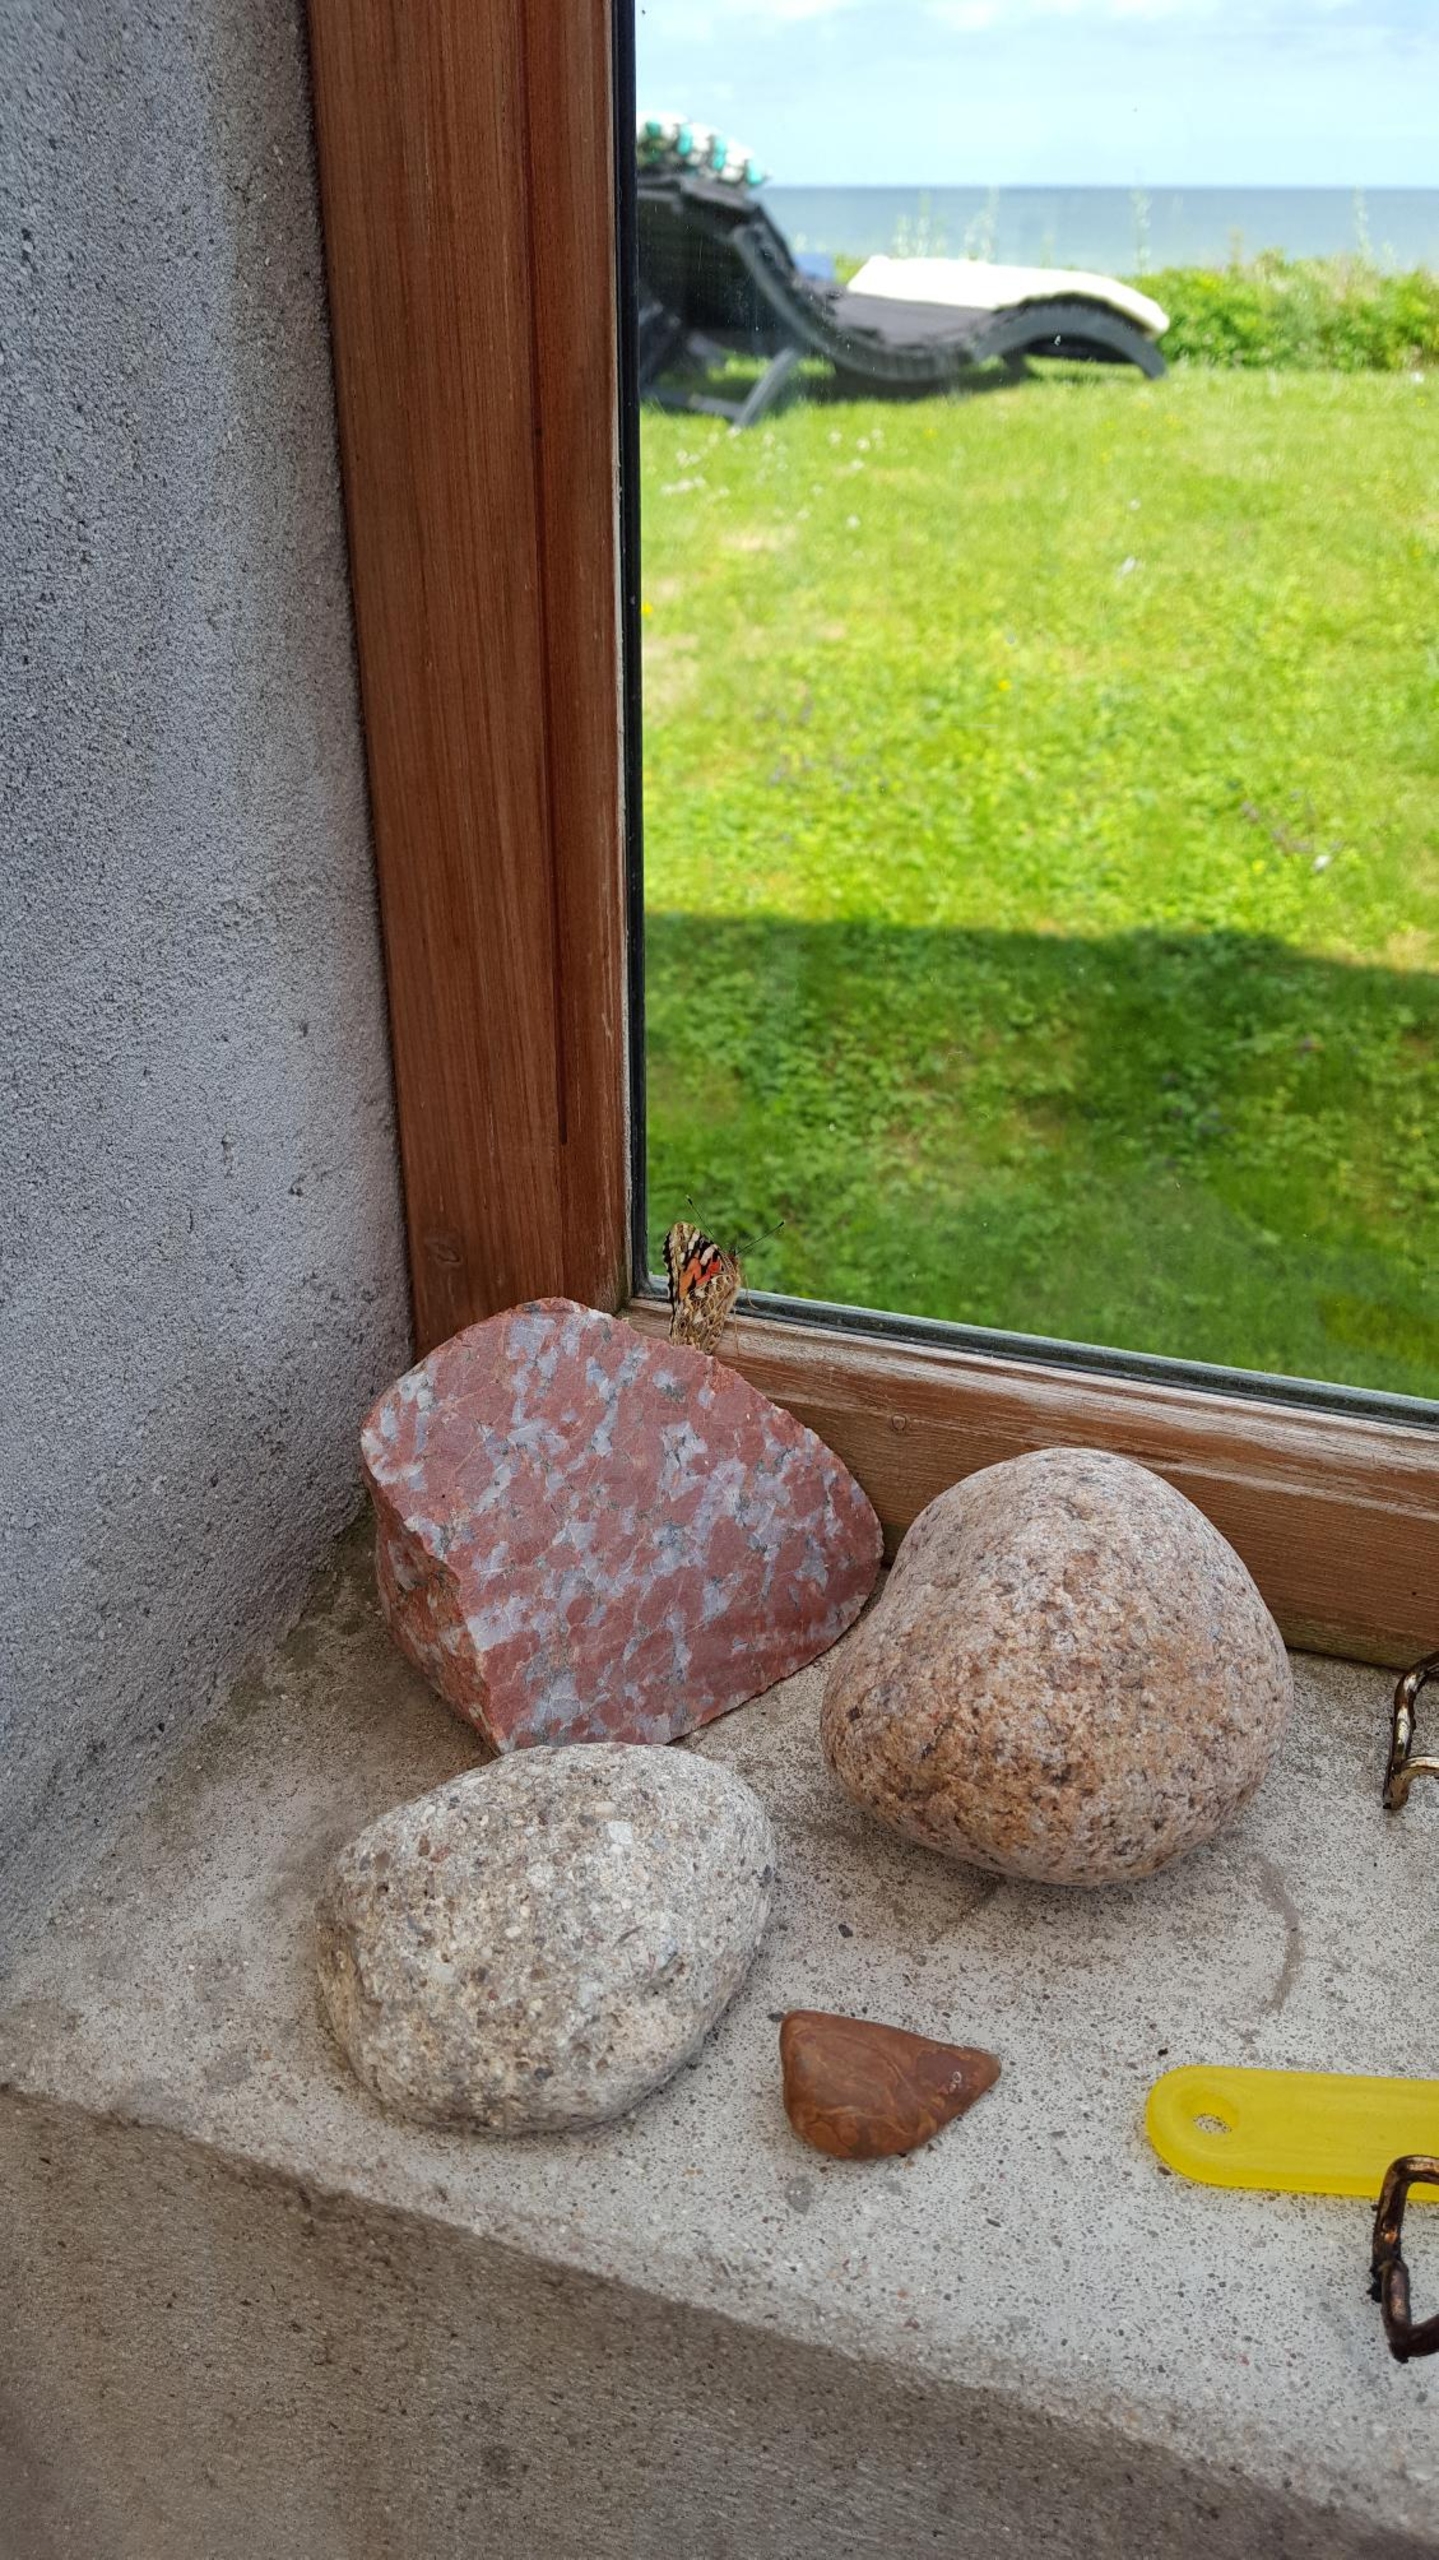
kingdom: Animalia
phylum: Arthropoda
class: Insecta
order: Lepidoptera
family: Nymphalidae
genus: Vanessa
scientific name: Vanessa cardui
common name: Tidselsommerfugl
